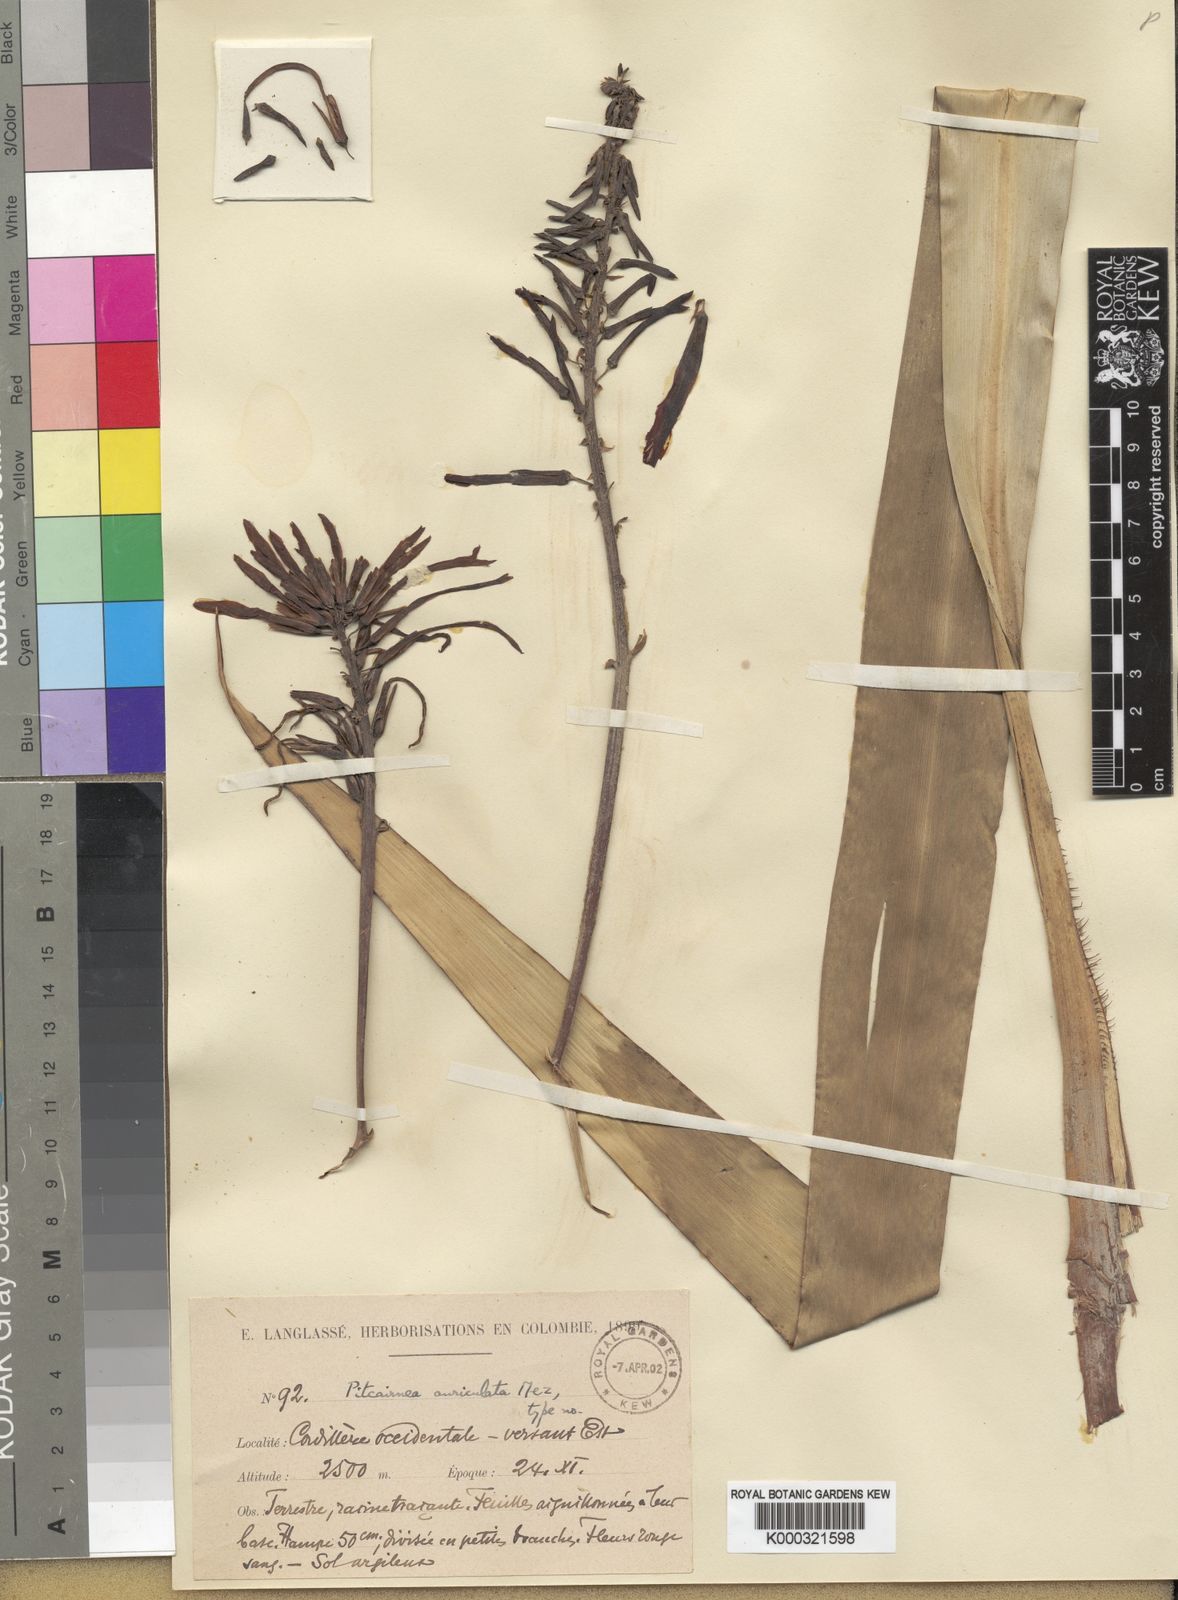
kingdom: Plantae
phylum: Tracheophyta
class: Liliopsida
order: Poales
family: Bromeliaceae
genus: Pitcairnia
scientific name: Pitcairnia lehmannii
